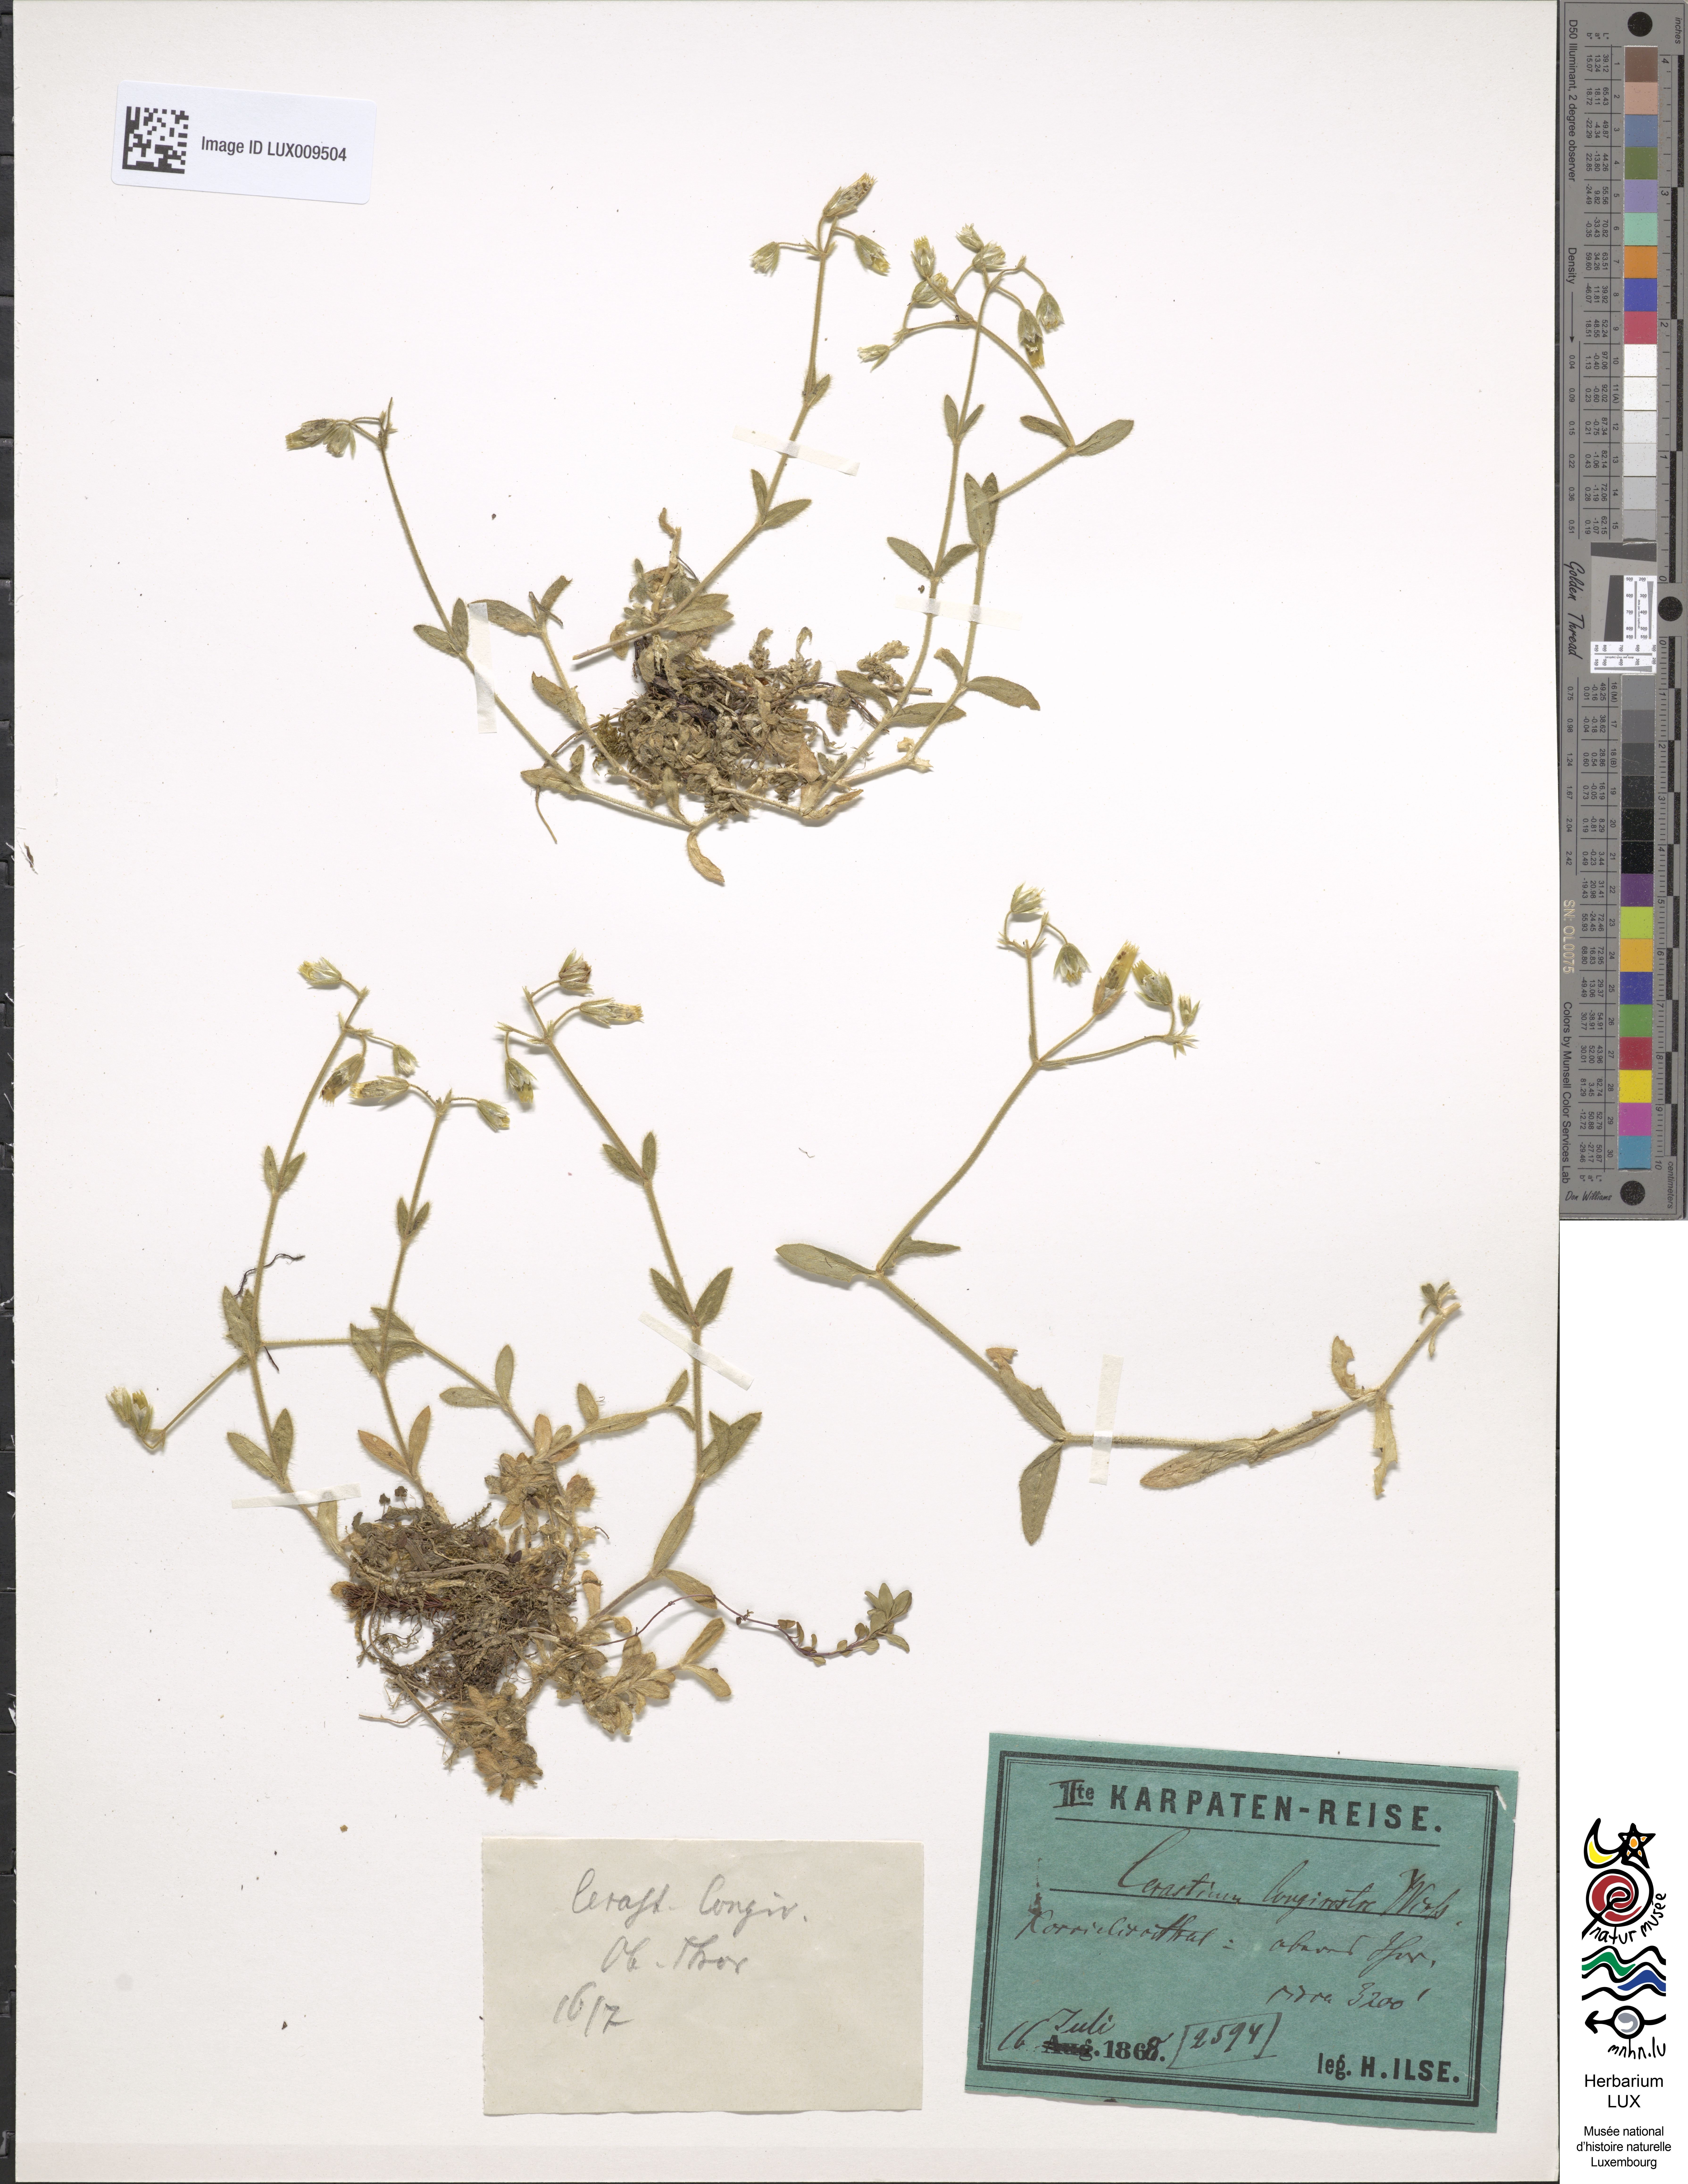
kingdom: Plantae
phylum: Tracheophyta
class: Magnoliopsida
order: Caryophyllales
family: Caryophyllaceae
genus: Cerastium
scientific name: Cerastium fontanum
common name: Common mouse-ear
